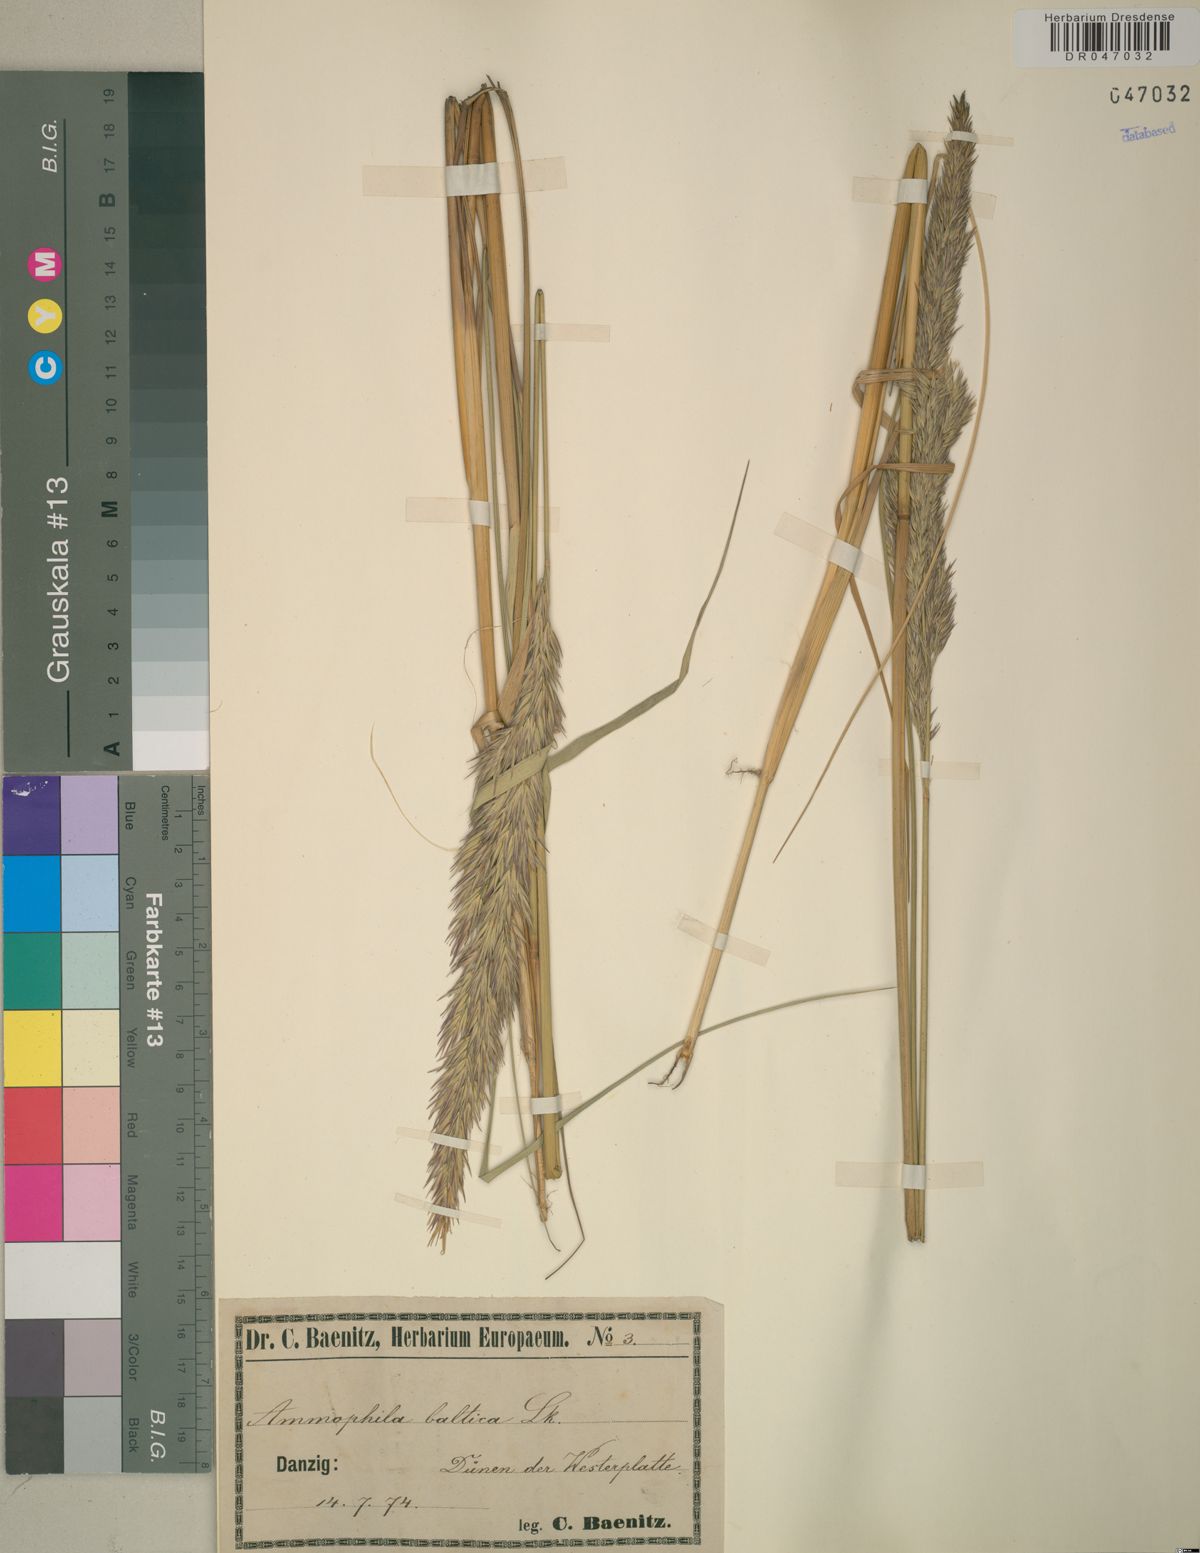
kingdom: Plantae
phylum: Tracheophyta
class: Liliopsida
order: Poales
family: Poaceae
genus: Calamagrostis
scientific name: Calamagrostis baltica
